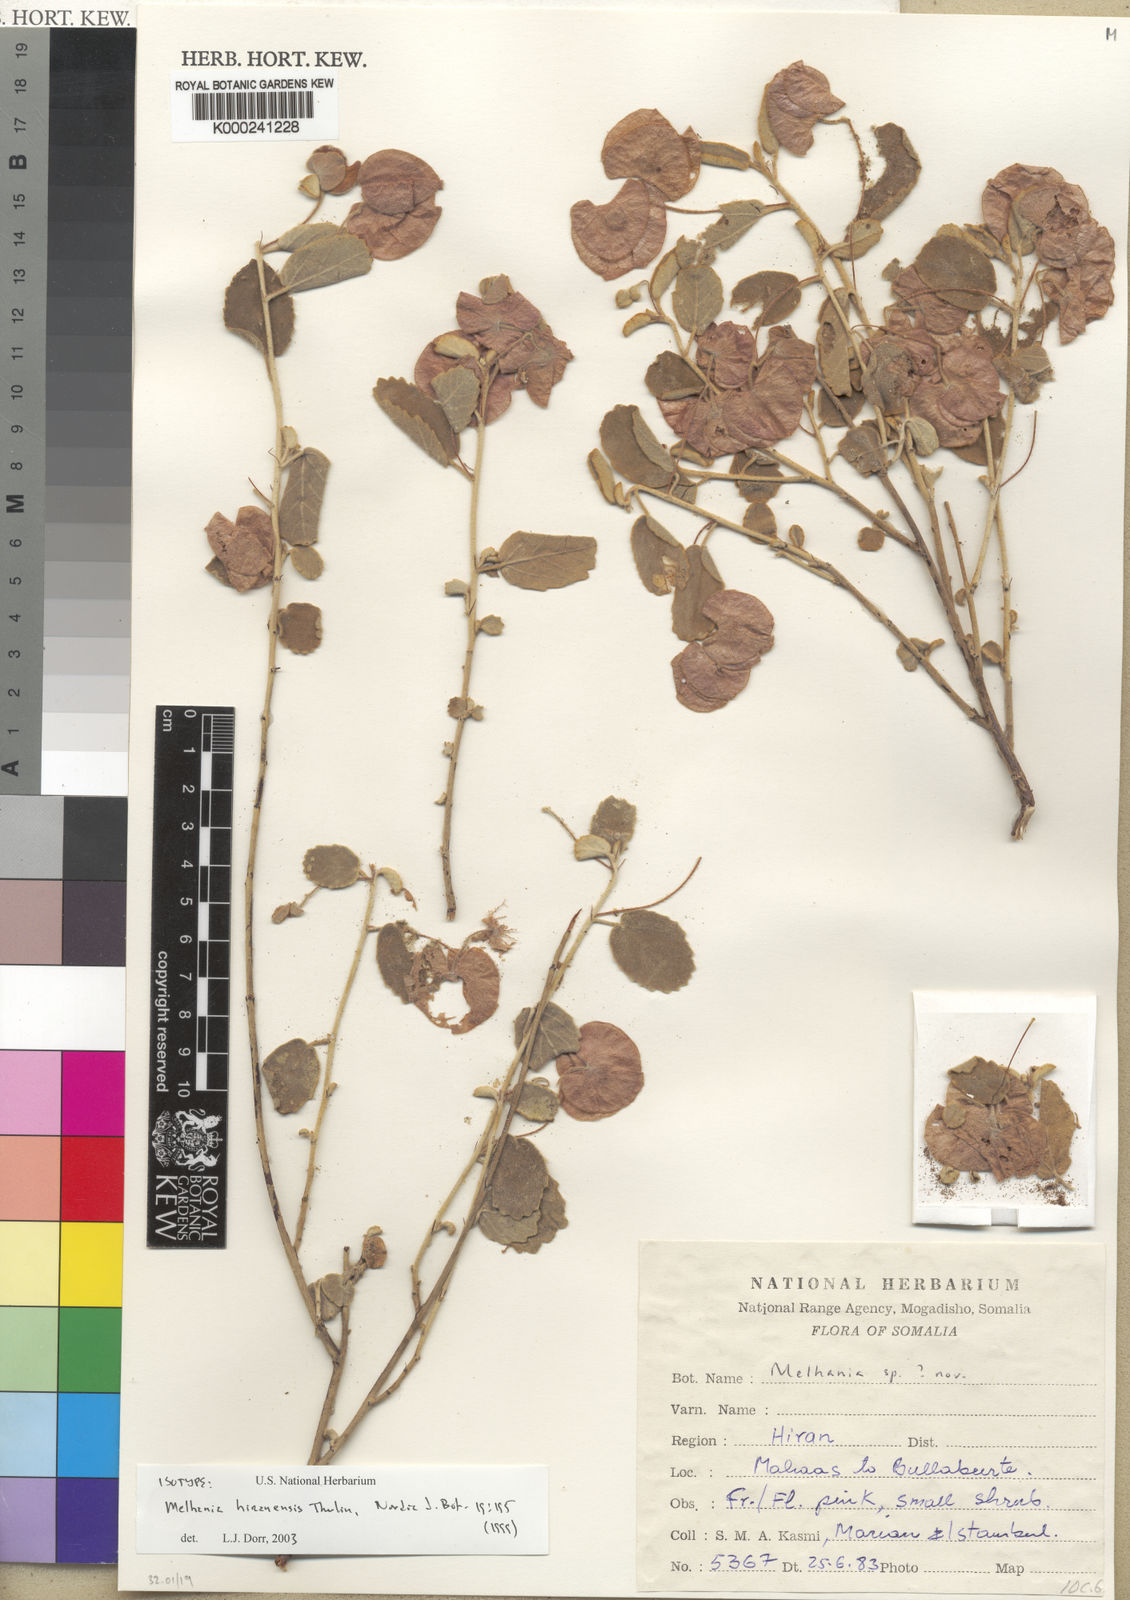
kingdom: Plantae
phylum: Tracheophyta
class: Magnoliopsida
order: Malvales
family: Malvaceae
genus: Melhania
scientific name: Melhania hiranensis
